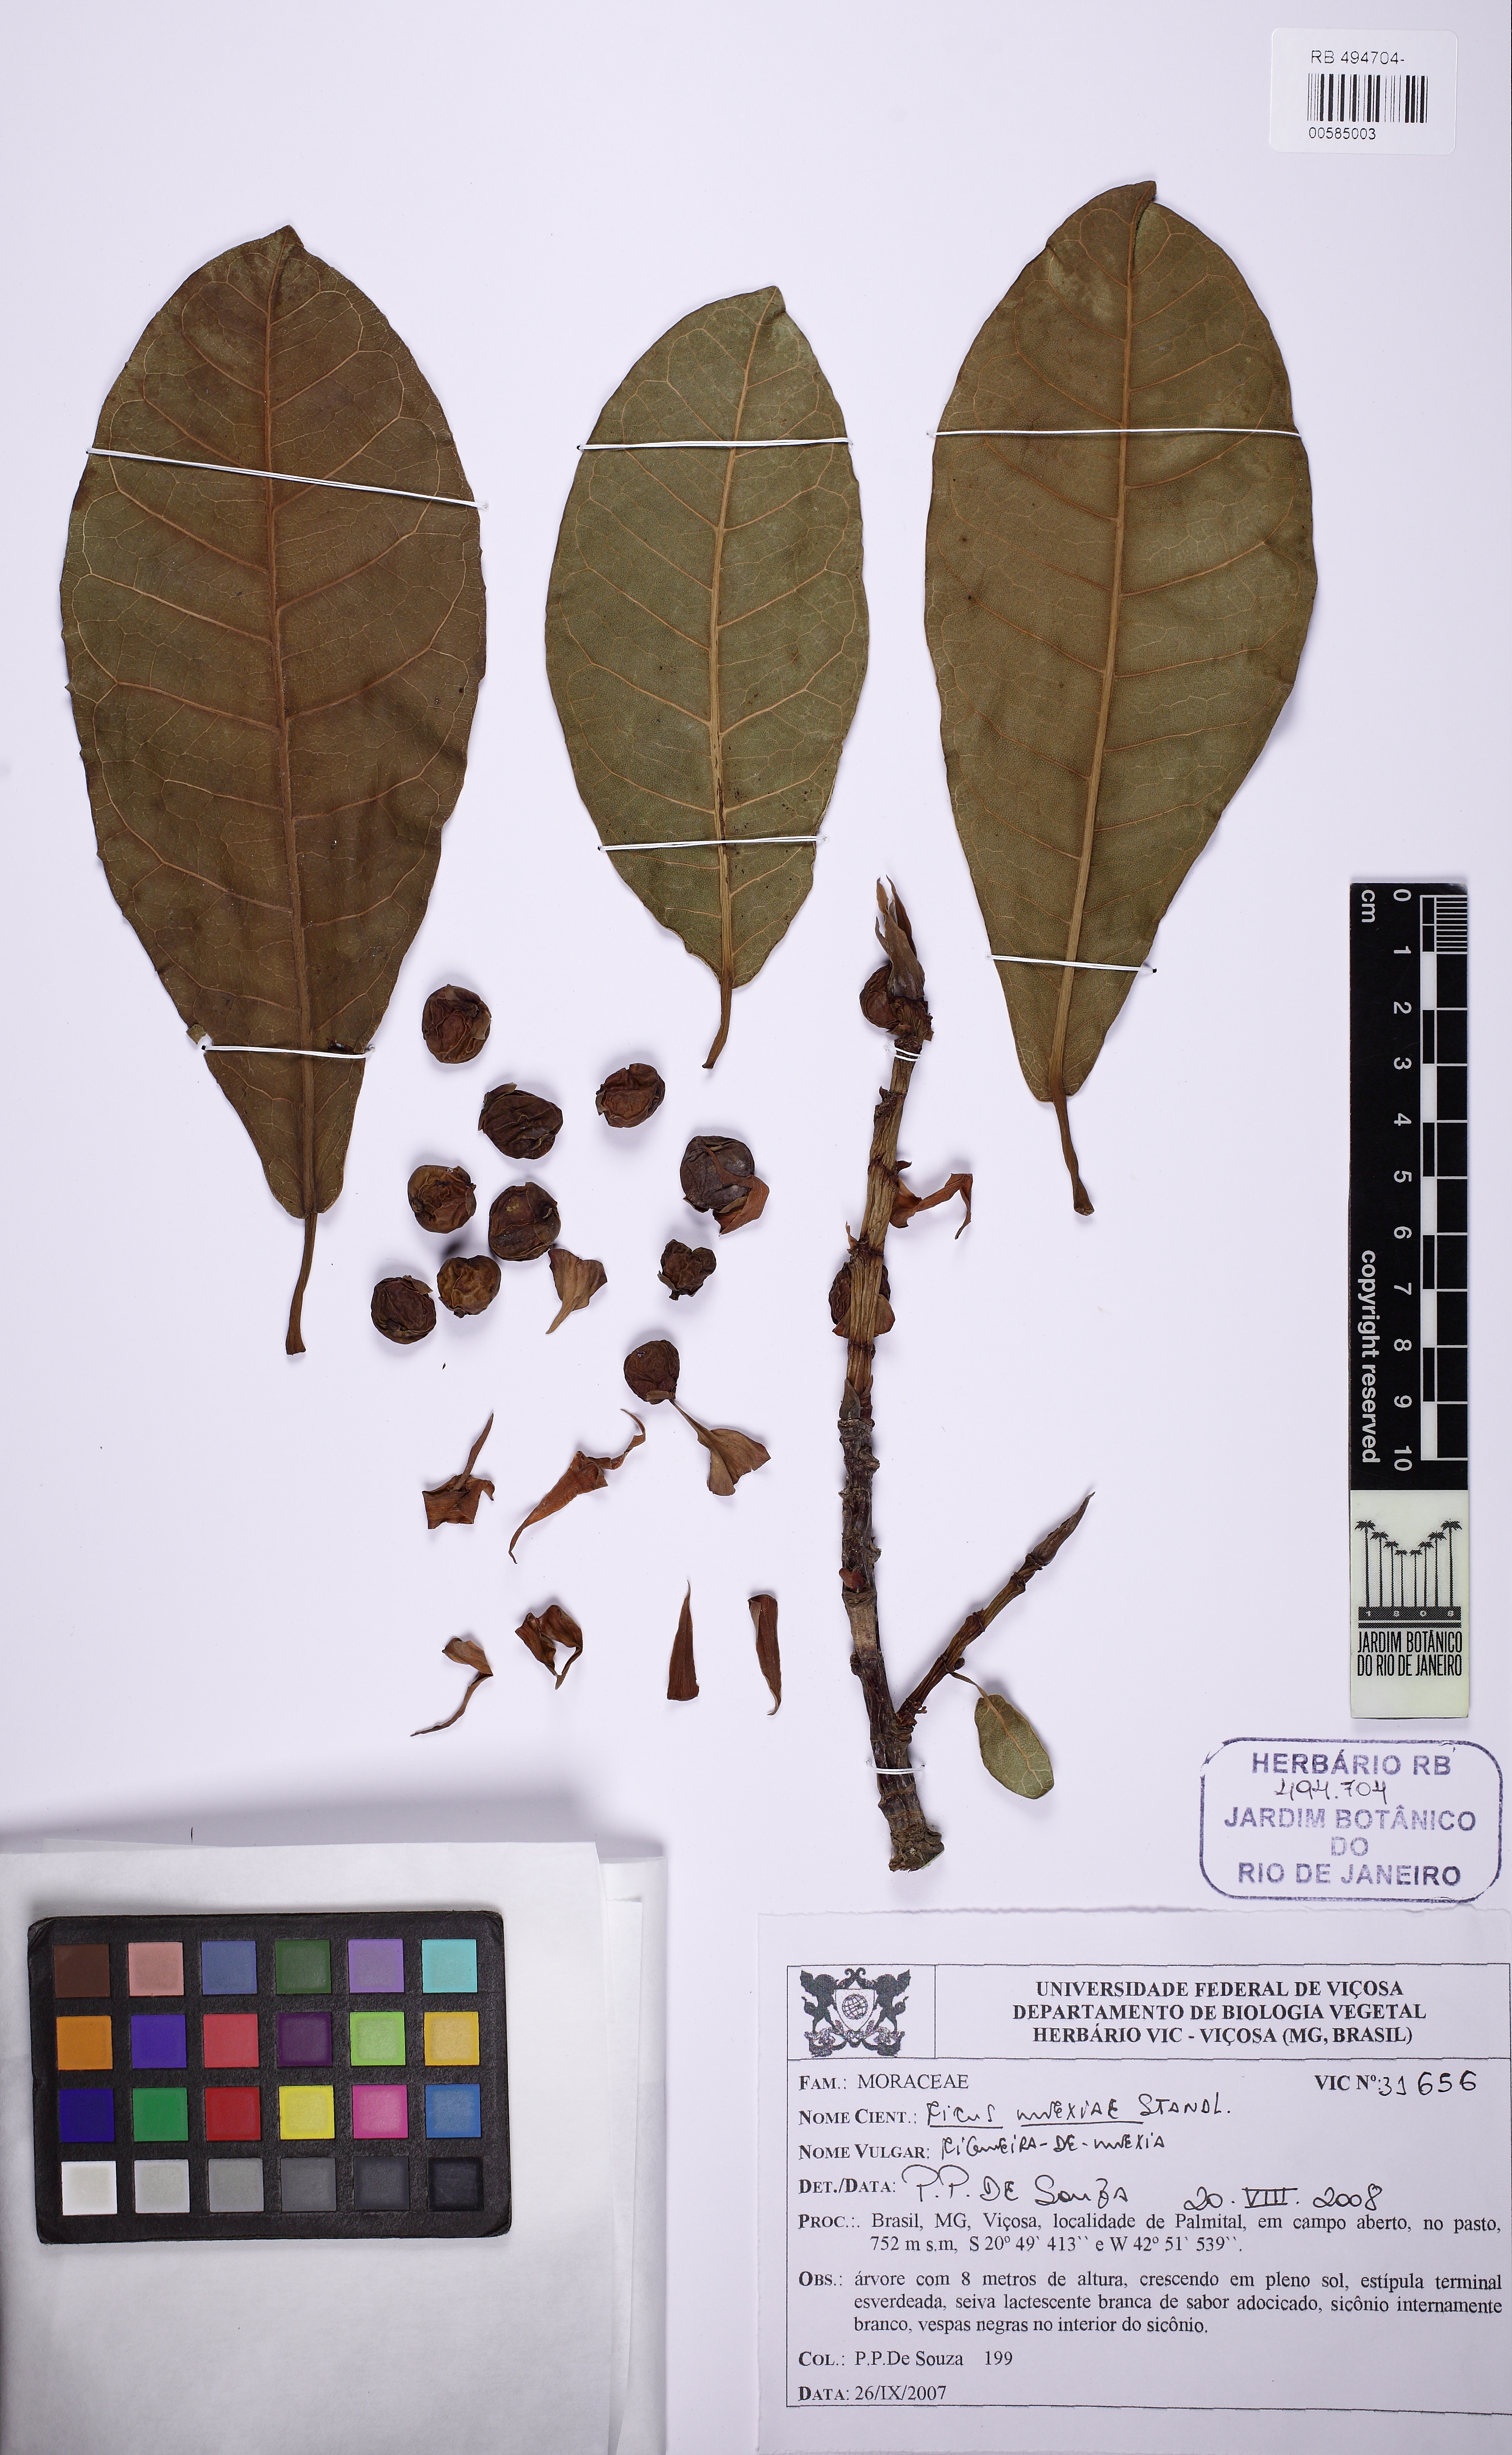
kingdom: Plantae
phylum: Tracheophyta
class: Magnoliopsida
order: Rosales
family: Moraceae
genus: Ficus
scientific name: Ficus mexiae
